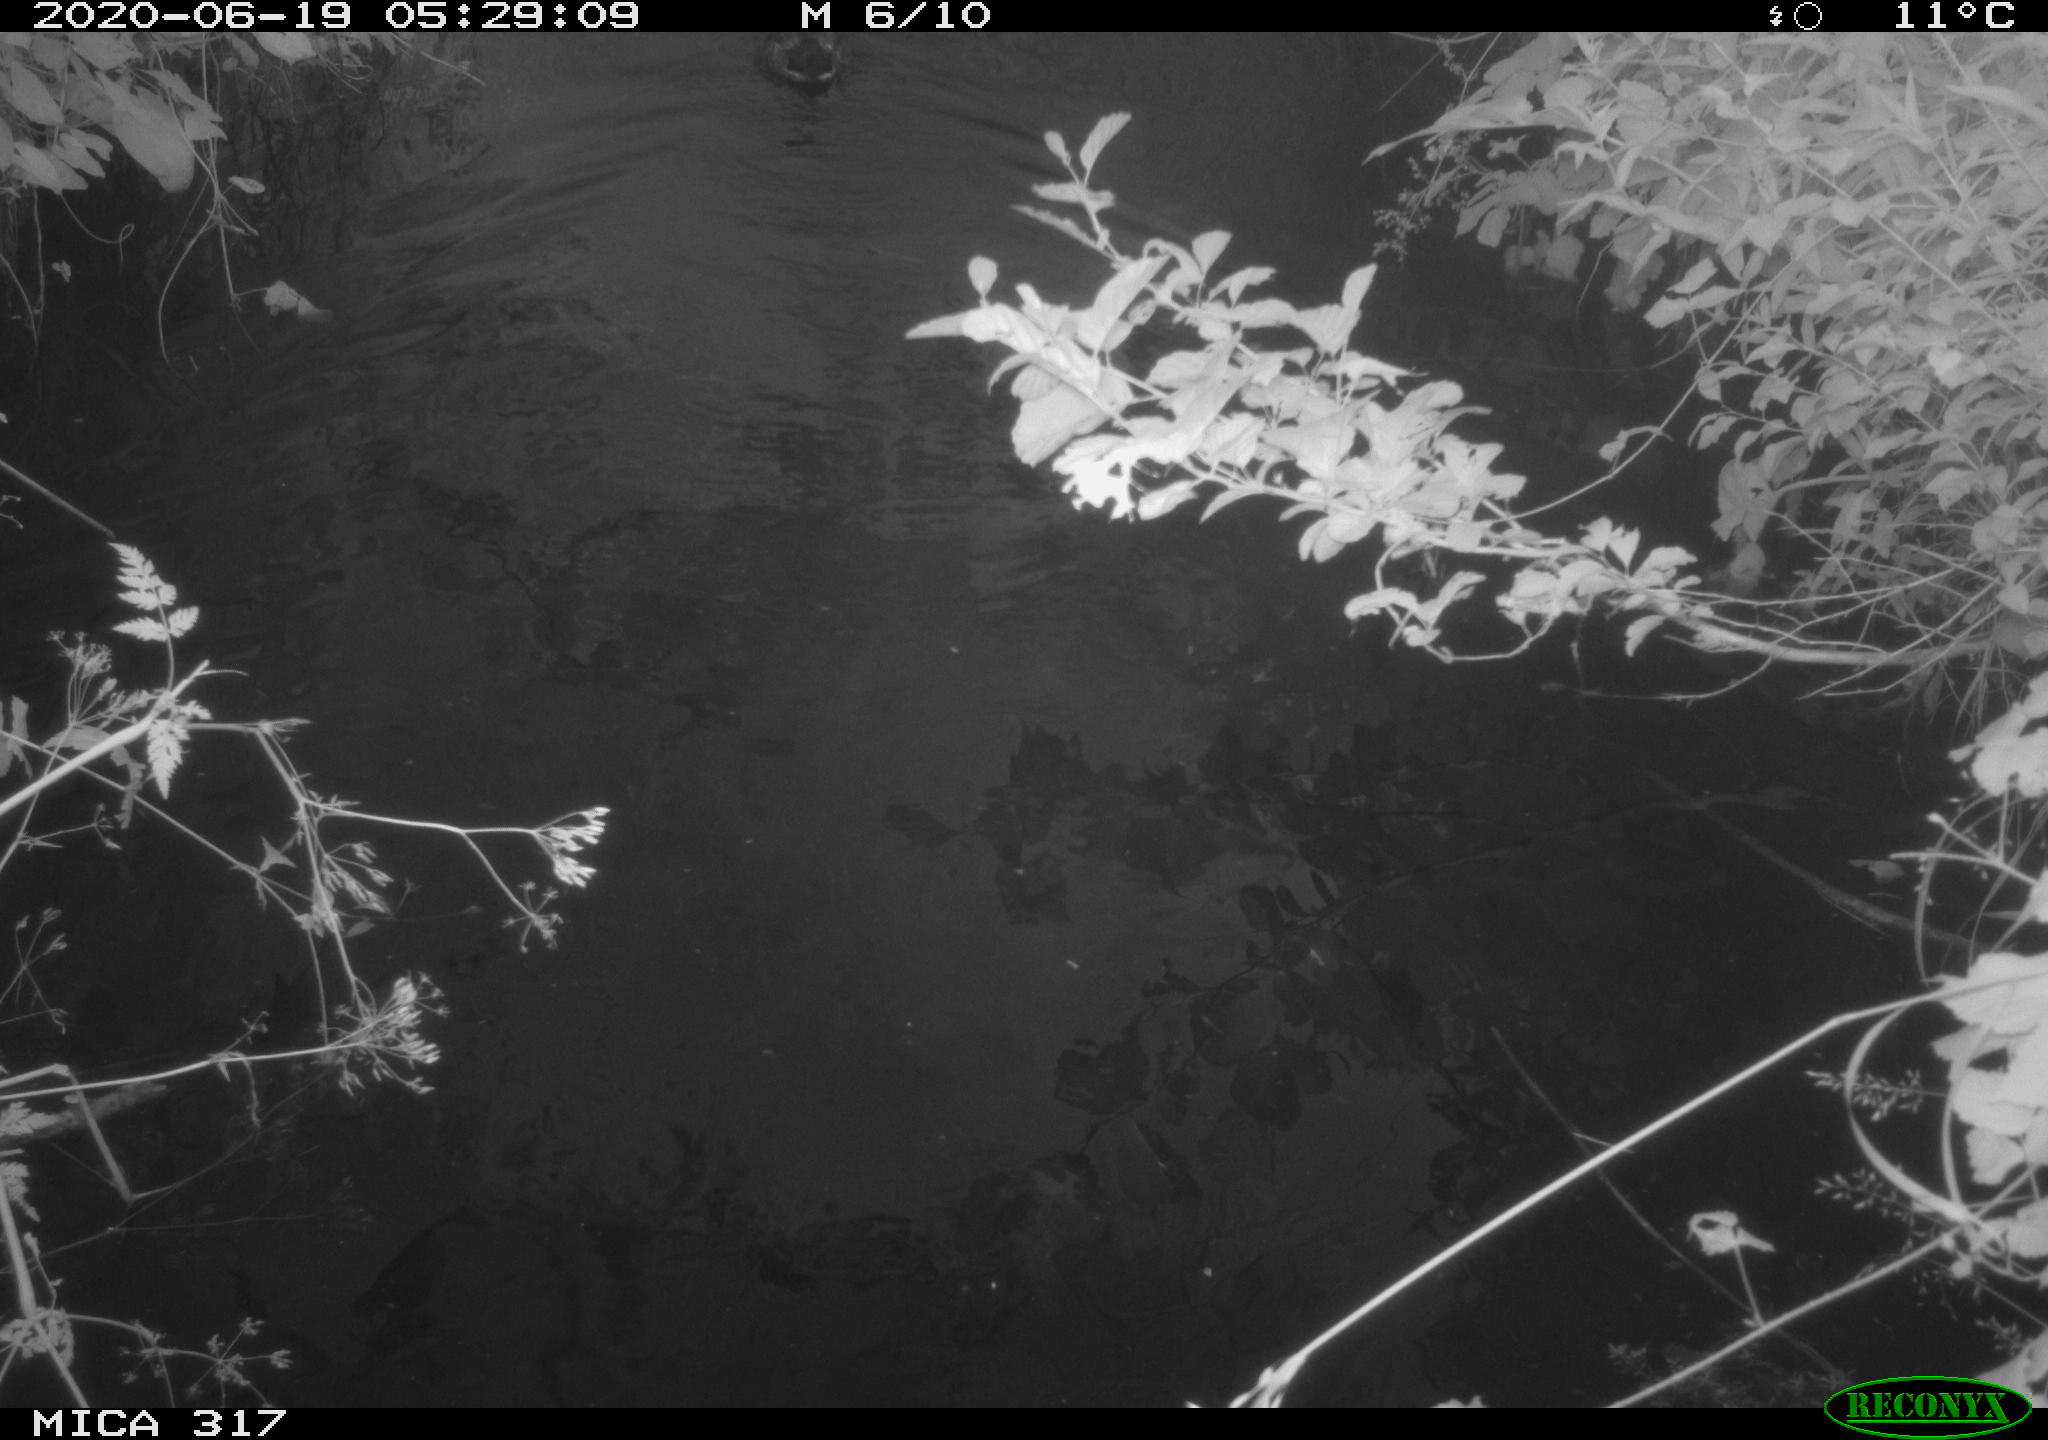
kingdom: Animalia
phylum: Chordata
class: Aves
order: Anseriformes
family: Anatidae
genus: Anas
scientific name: Anas platyrhynchos
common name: Mallard
